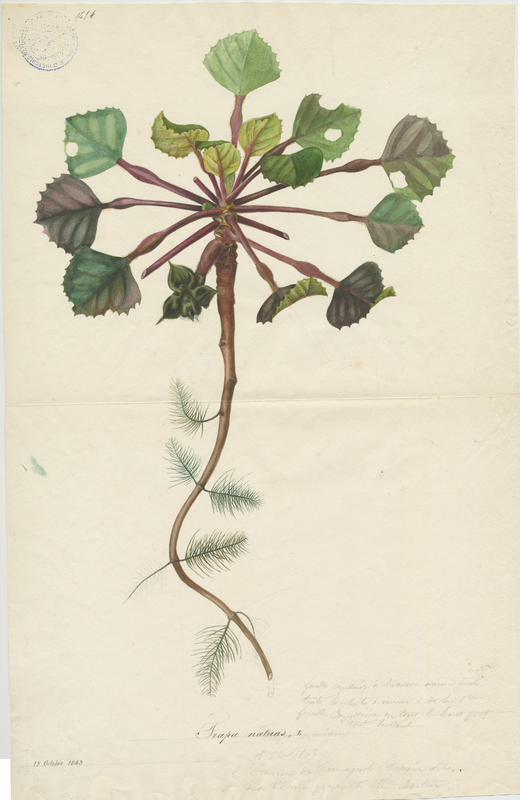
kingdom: Plantae
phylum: Tracheophyta
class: Magnoliopsida
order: Myrtales
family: Lythraceae
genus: Trapa
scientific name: Trapa natans
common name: Water chestnut
